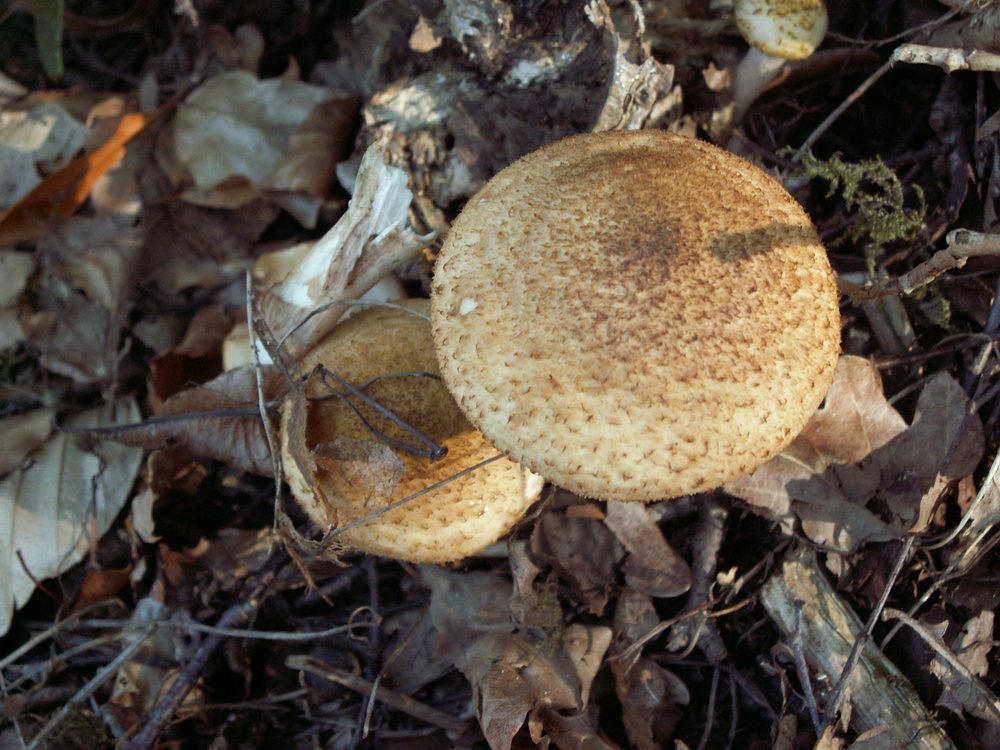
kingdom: Fungi
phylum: Basidiomycota
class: Agaricomycetes
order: Agaricales
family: Physalacriaceae
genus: Armillaria
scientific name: Armillaria ostoyae
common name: mørk honningsvamp
